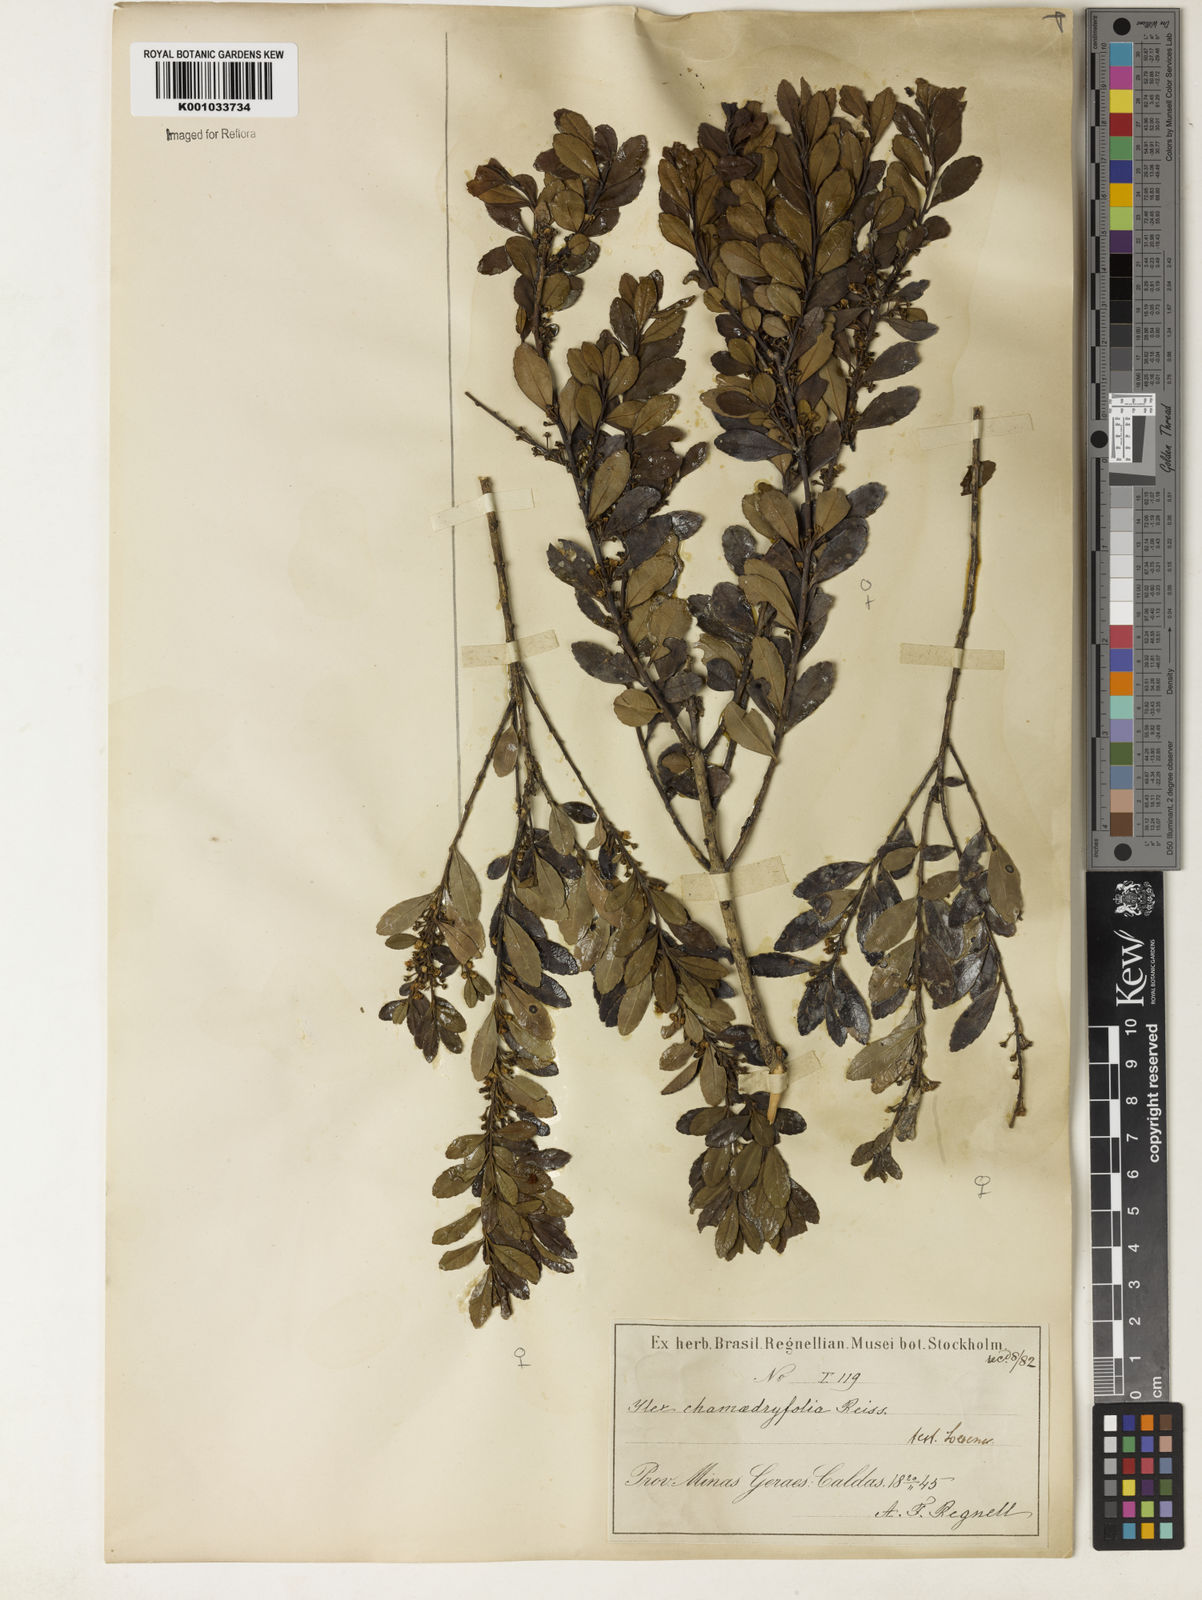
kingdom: Plantae
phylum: Tracheophyta
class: Magnoliopsida
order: Aquifoliales
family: Aquifoliaceae
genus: Ilex
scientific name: Ilex chamaedryfolia
